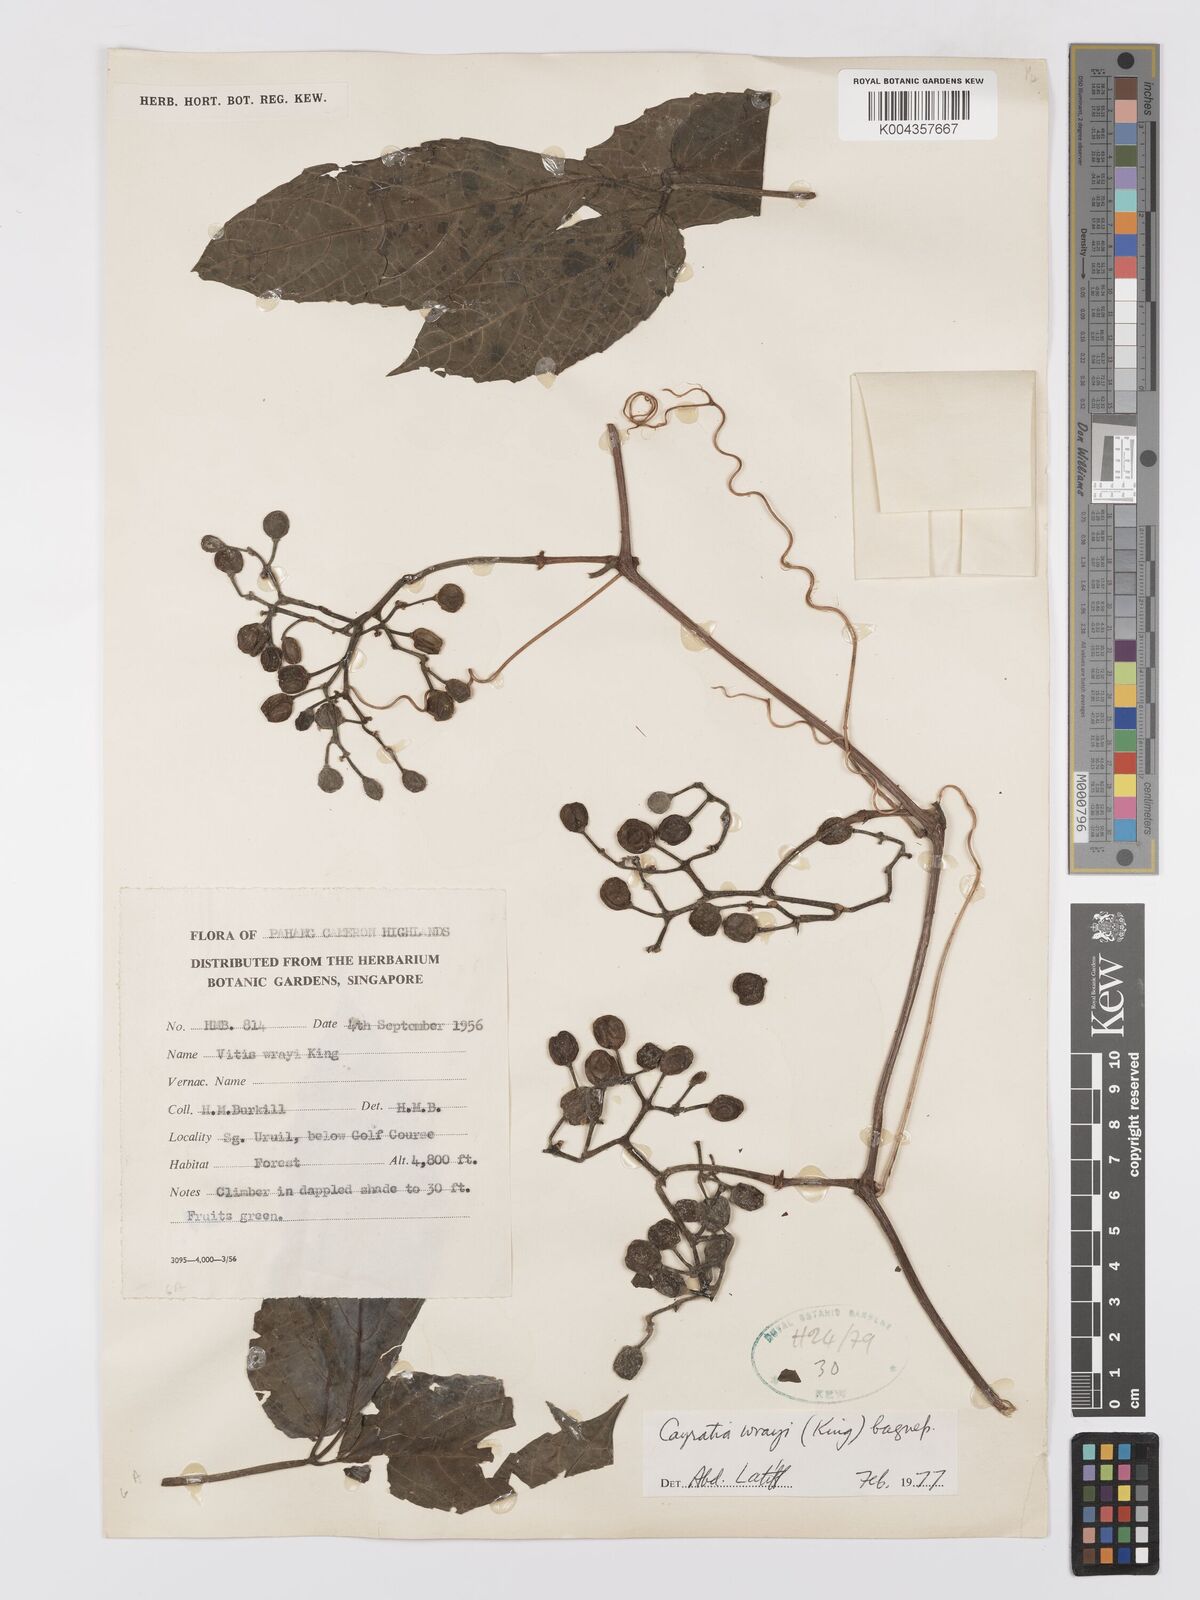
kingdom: Plantae
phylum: Tracheophyta
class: Magnoliopsida
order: Vitales
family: Vitaceae
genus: Cayratia
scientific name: Cayratia mollissima
